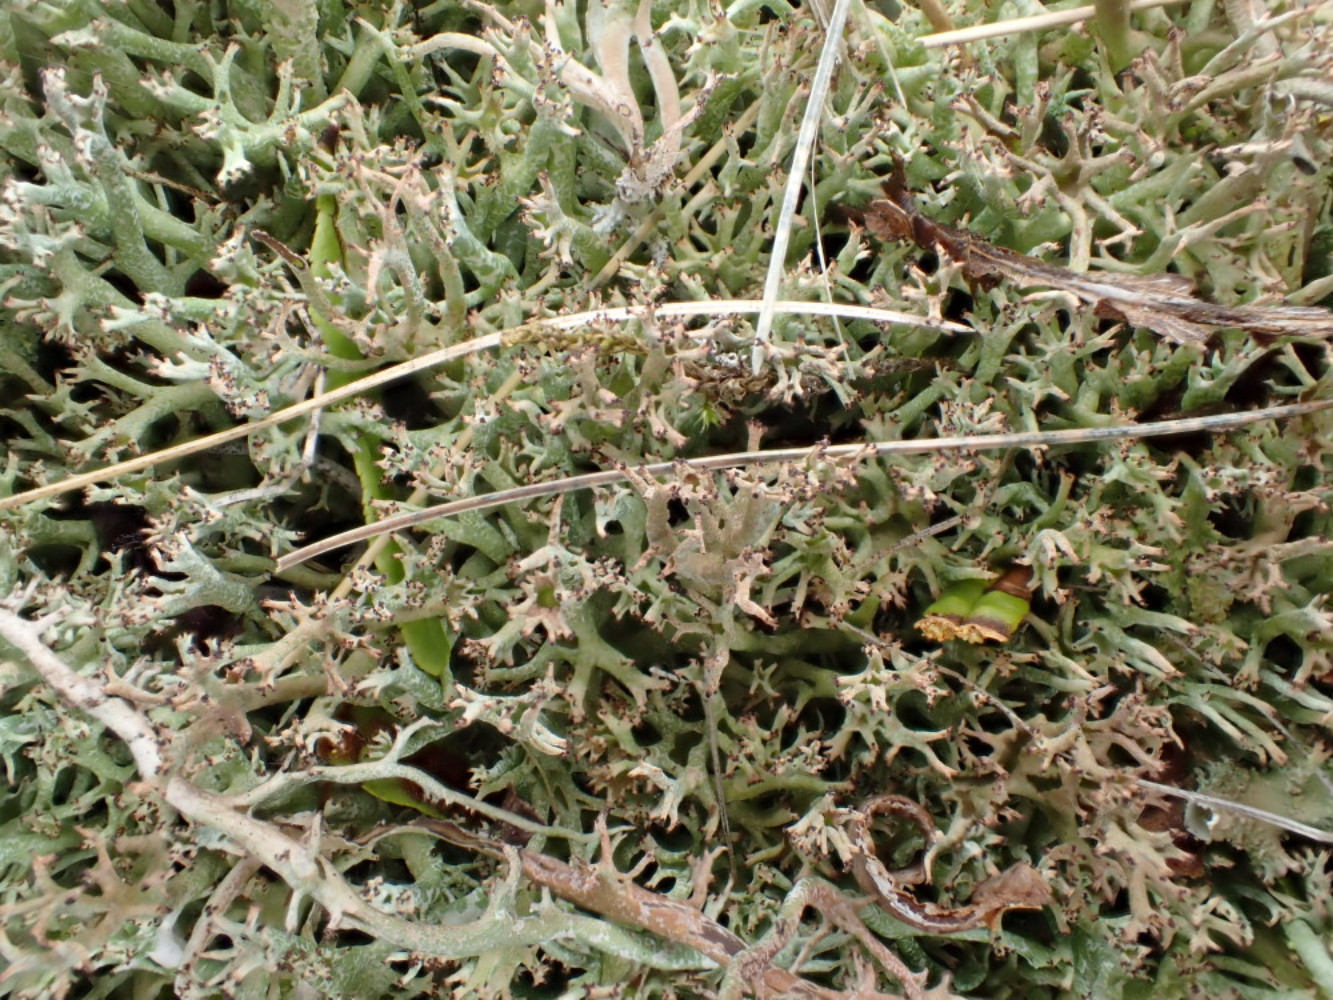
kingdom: Fungi
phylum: Ascomycota
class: Lecanoromycetes
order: Lecanorales
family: Cladoniaceae
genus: Cladonia
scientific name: Cladonia rangiformis
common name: spættet bægerlav
